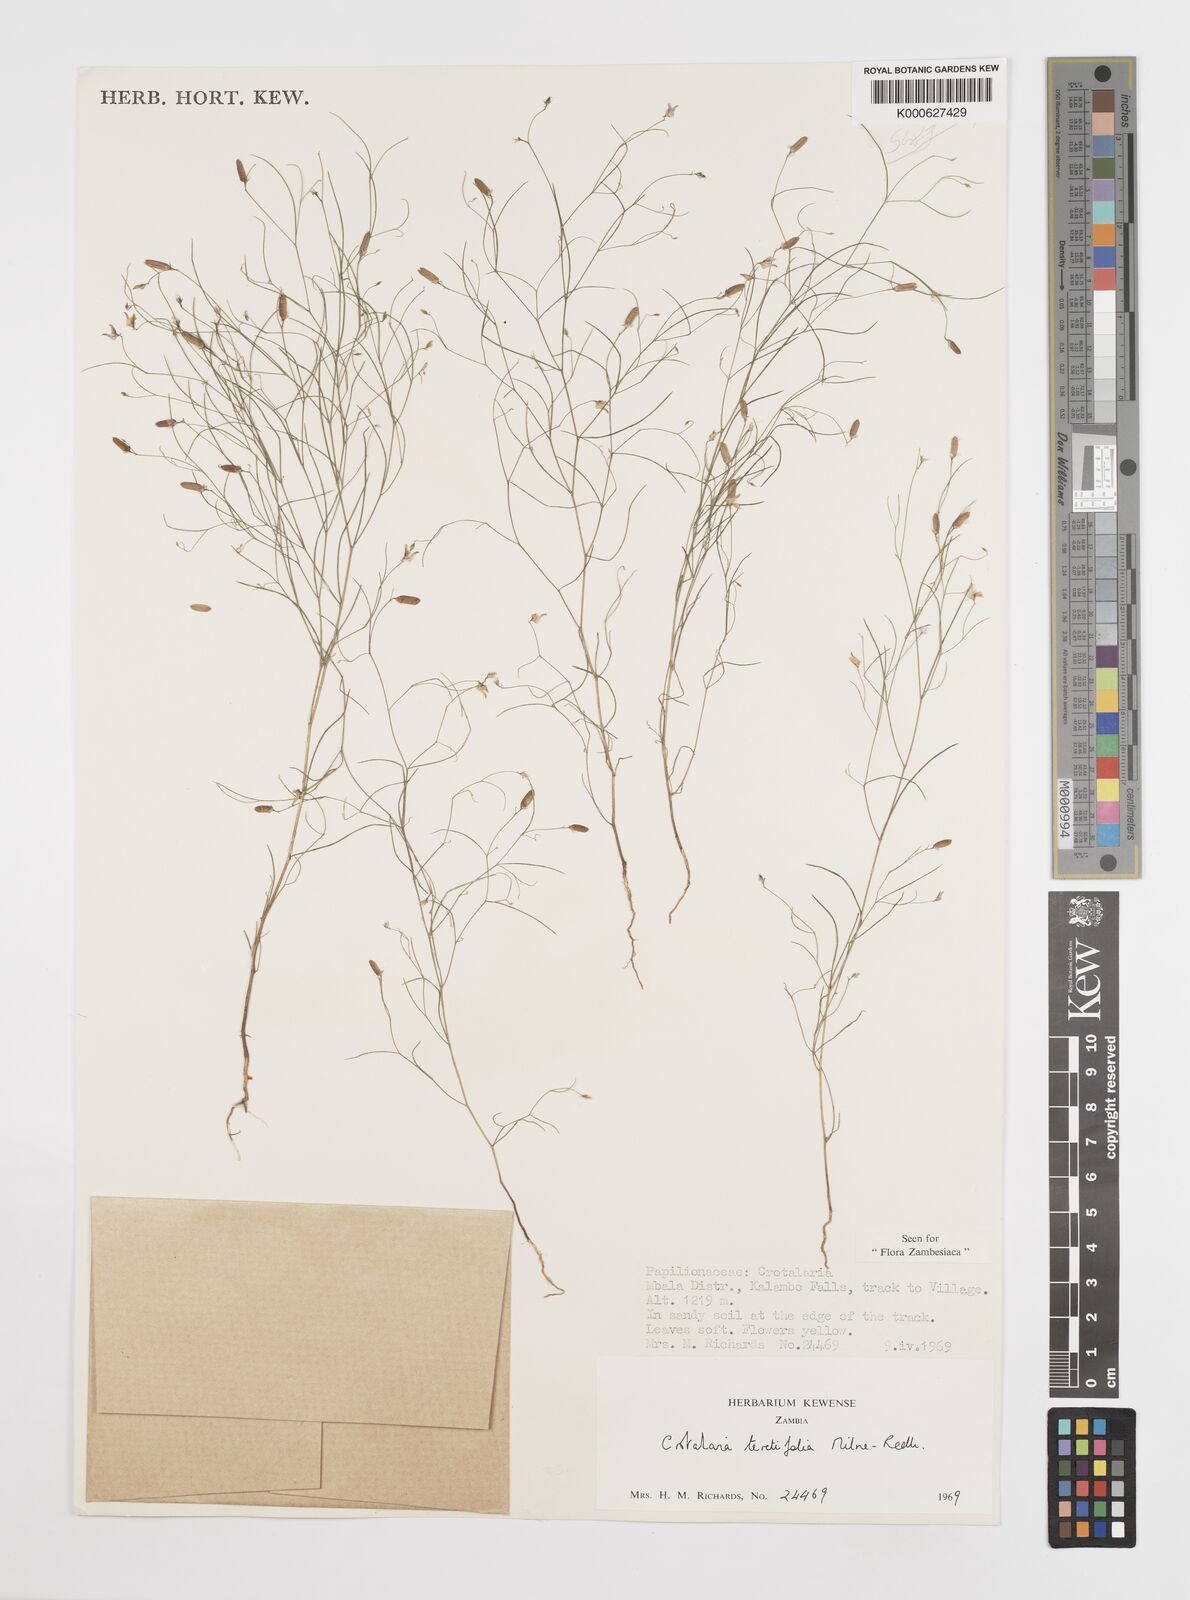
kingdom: Plantae
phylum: Tracheophyta
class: Magnoliopsida
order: Fabales
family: Fabaceae
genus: Crotalaria
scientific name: Crotalaria teretifolia
